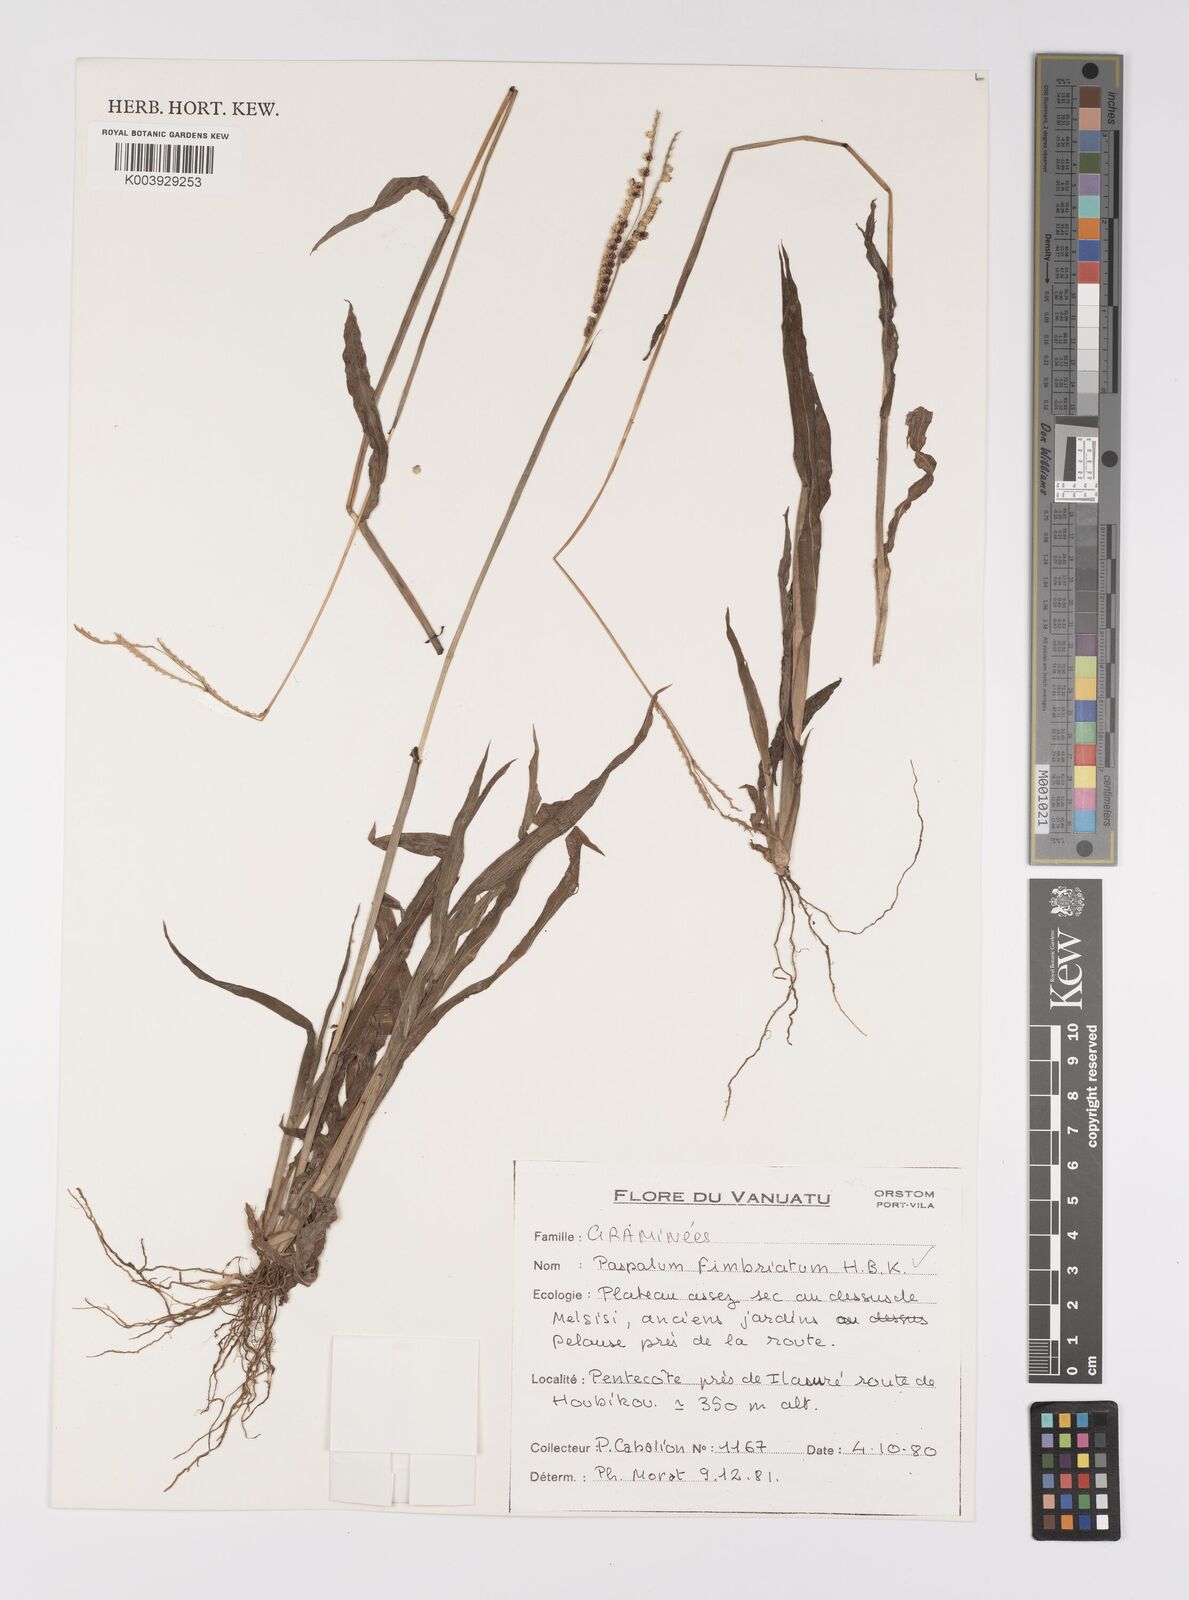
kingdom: Plantae
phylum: Tracheophyta
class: Liliopsida
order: Poales
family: Poaceae
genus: Paspalum
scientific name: Paspalum fimbriatum
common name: Panama crowngrass
